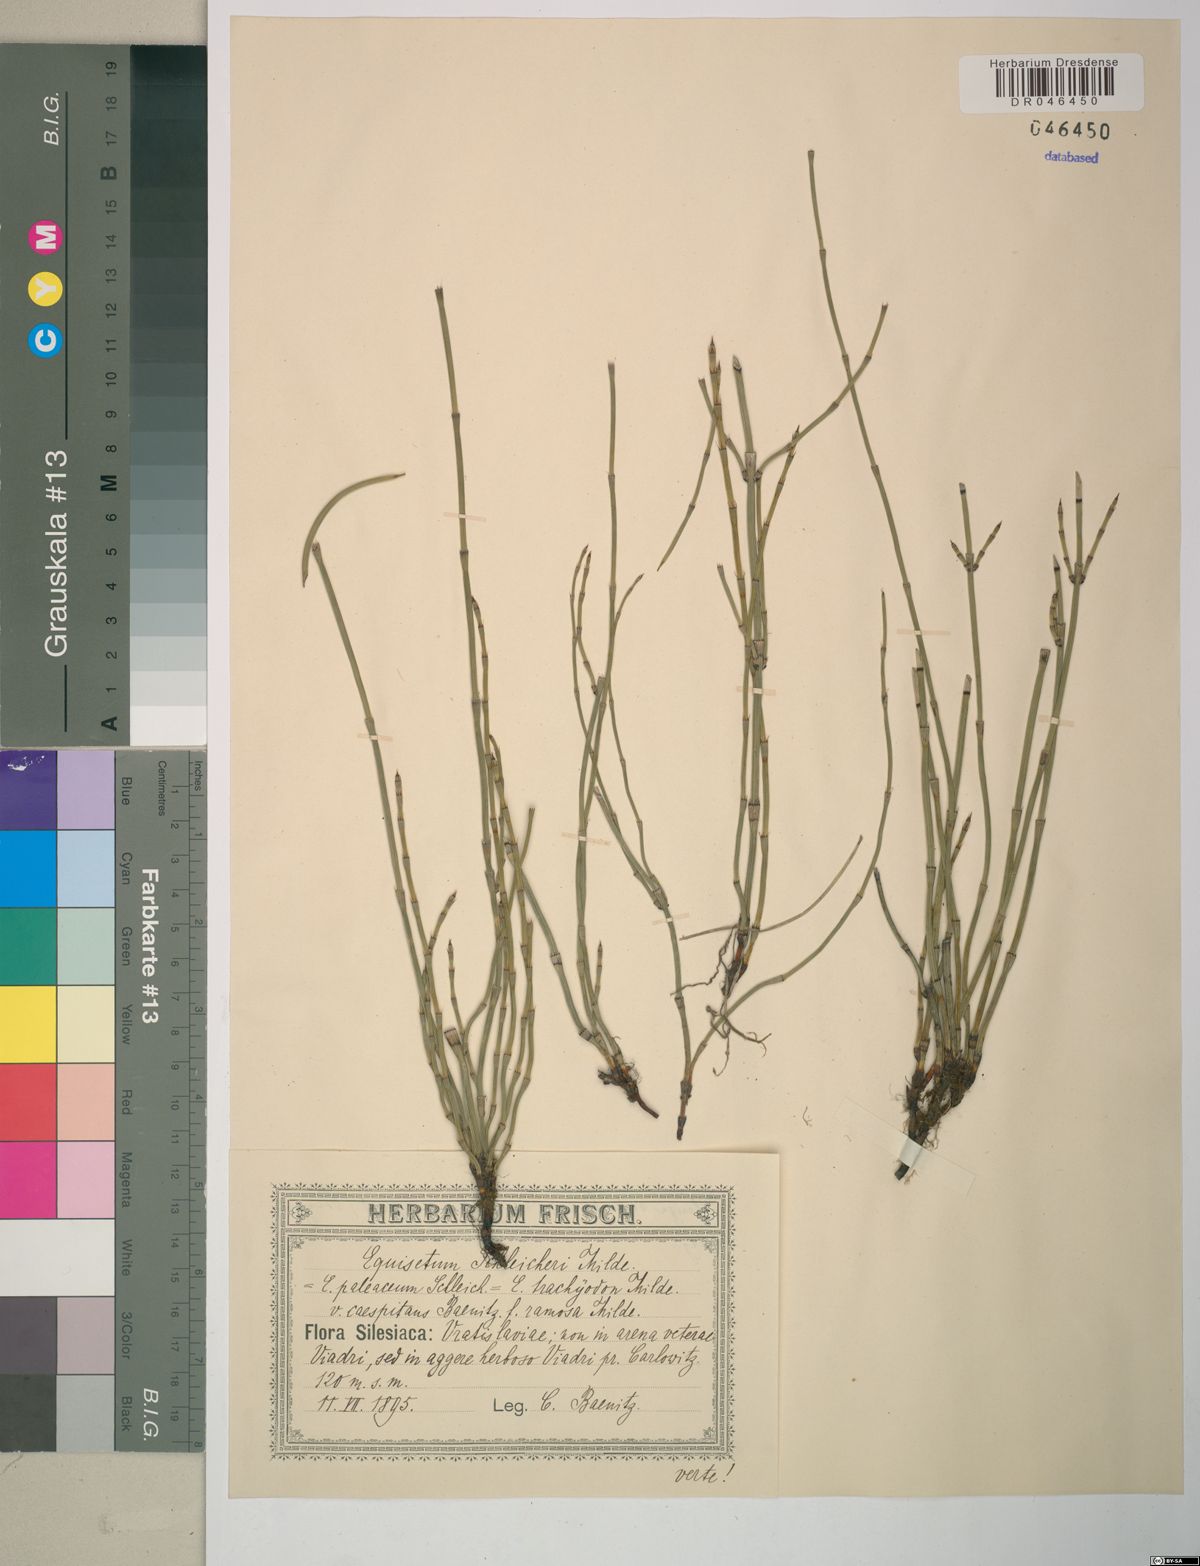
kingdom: Plantae
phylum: Tracheophyta
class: Polypodiopsida
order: Equisetales
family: Equisetaceae
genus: Equisetum
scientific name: Equisetum moorei
